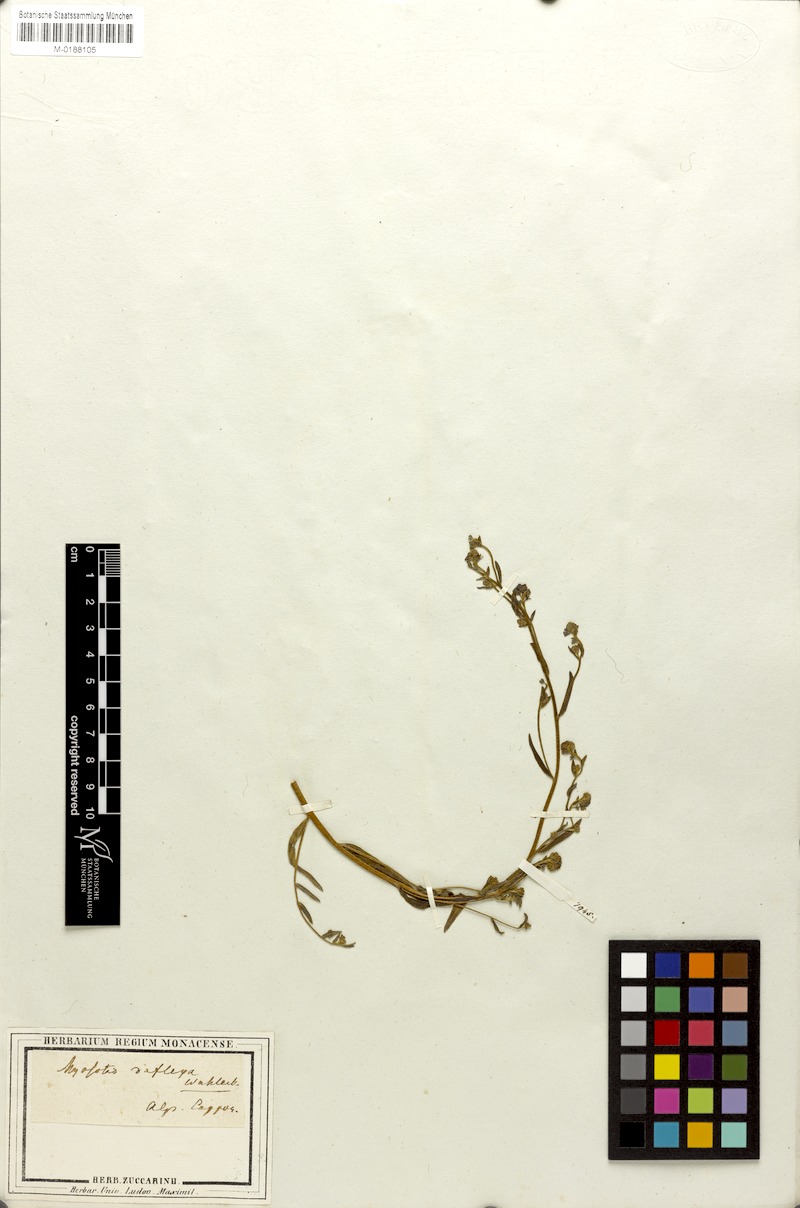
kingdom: Plantae
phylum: Tracheophyta
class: Magnoliopsida
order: Boraginales
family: Boraginaceae
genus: Hackelia
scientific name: Hackelia deflexa
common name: Nodding stickseed
